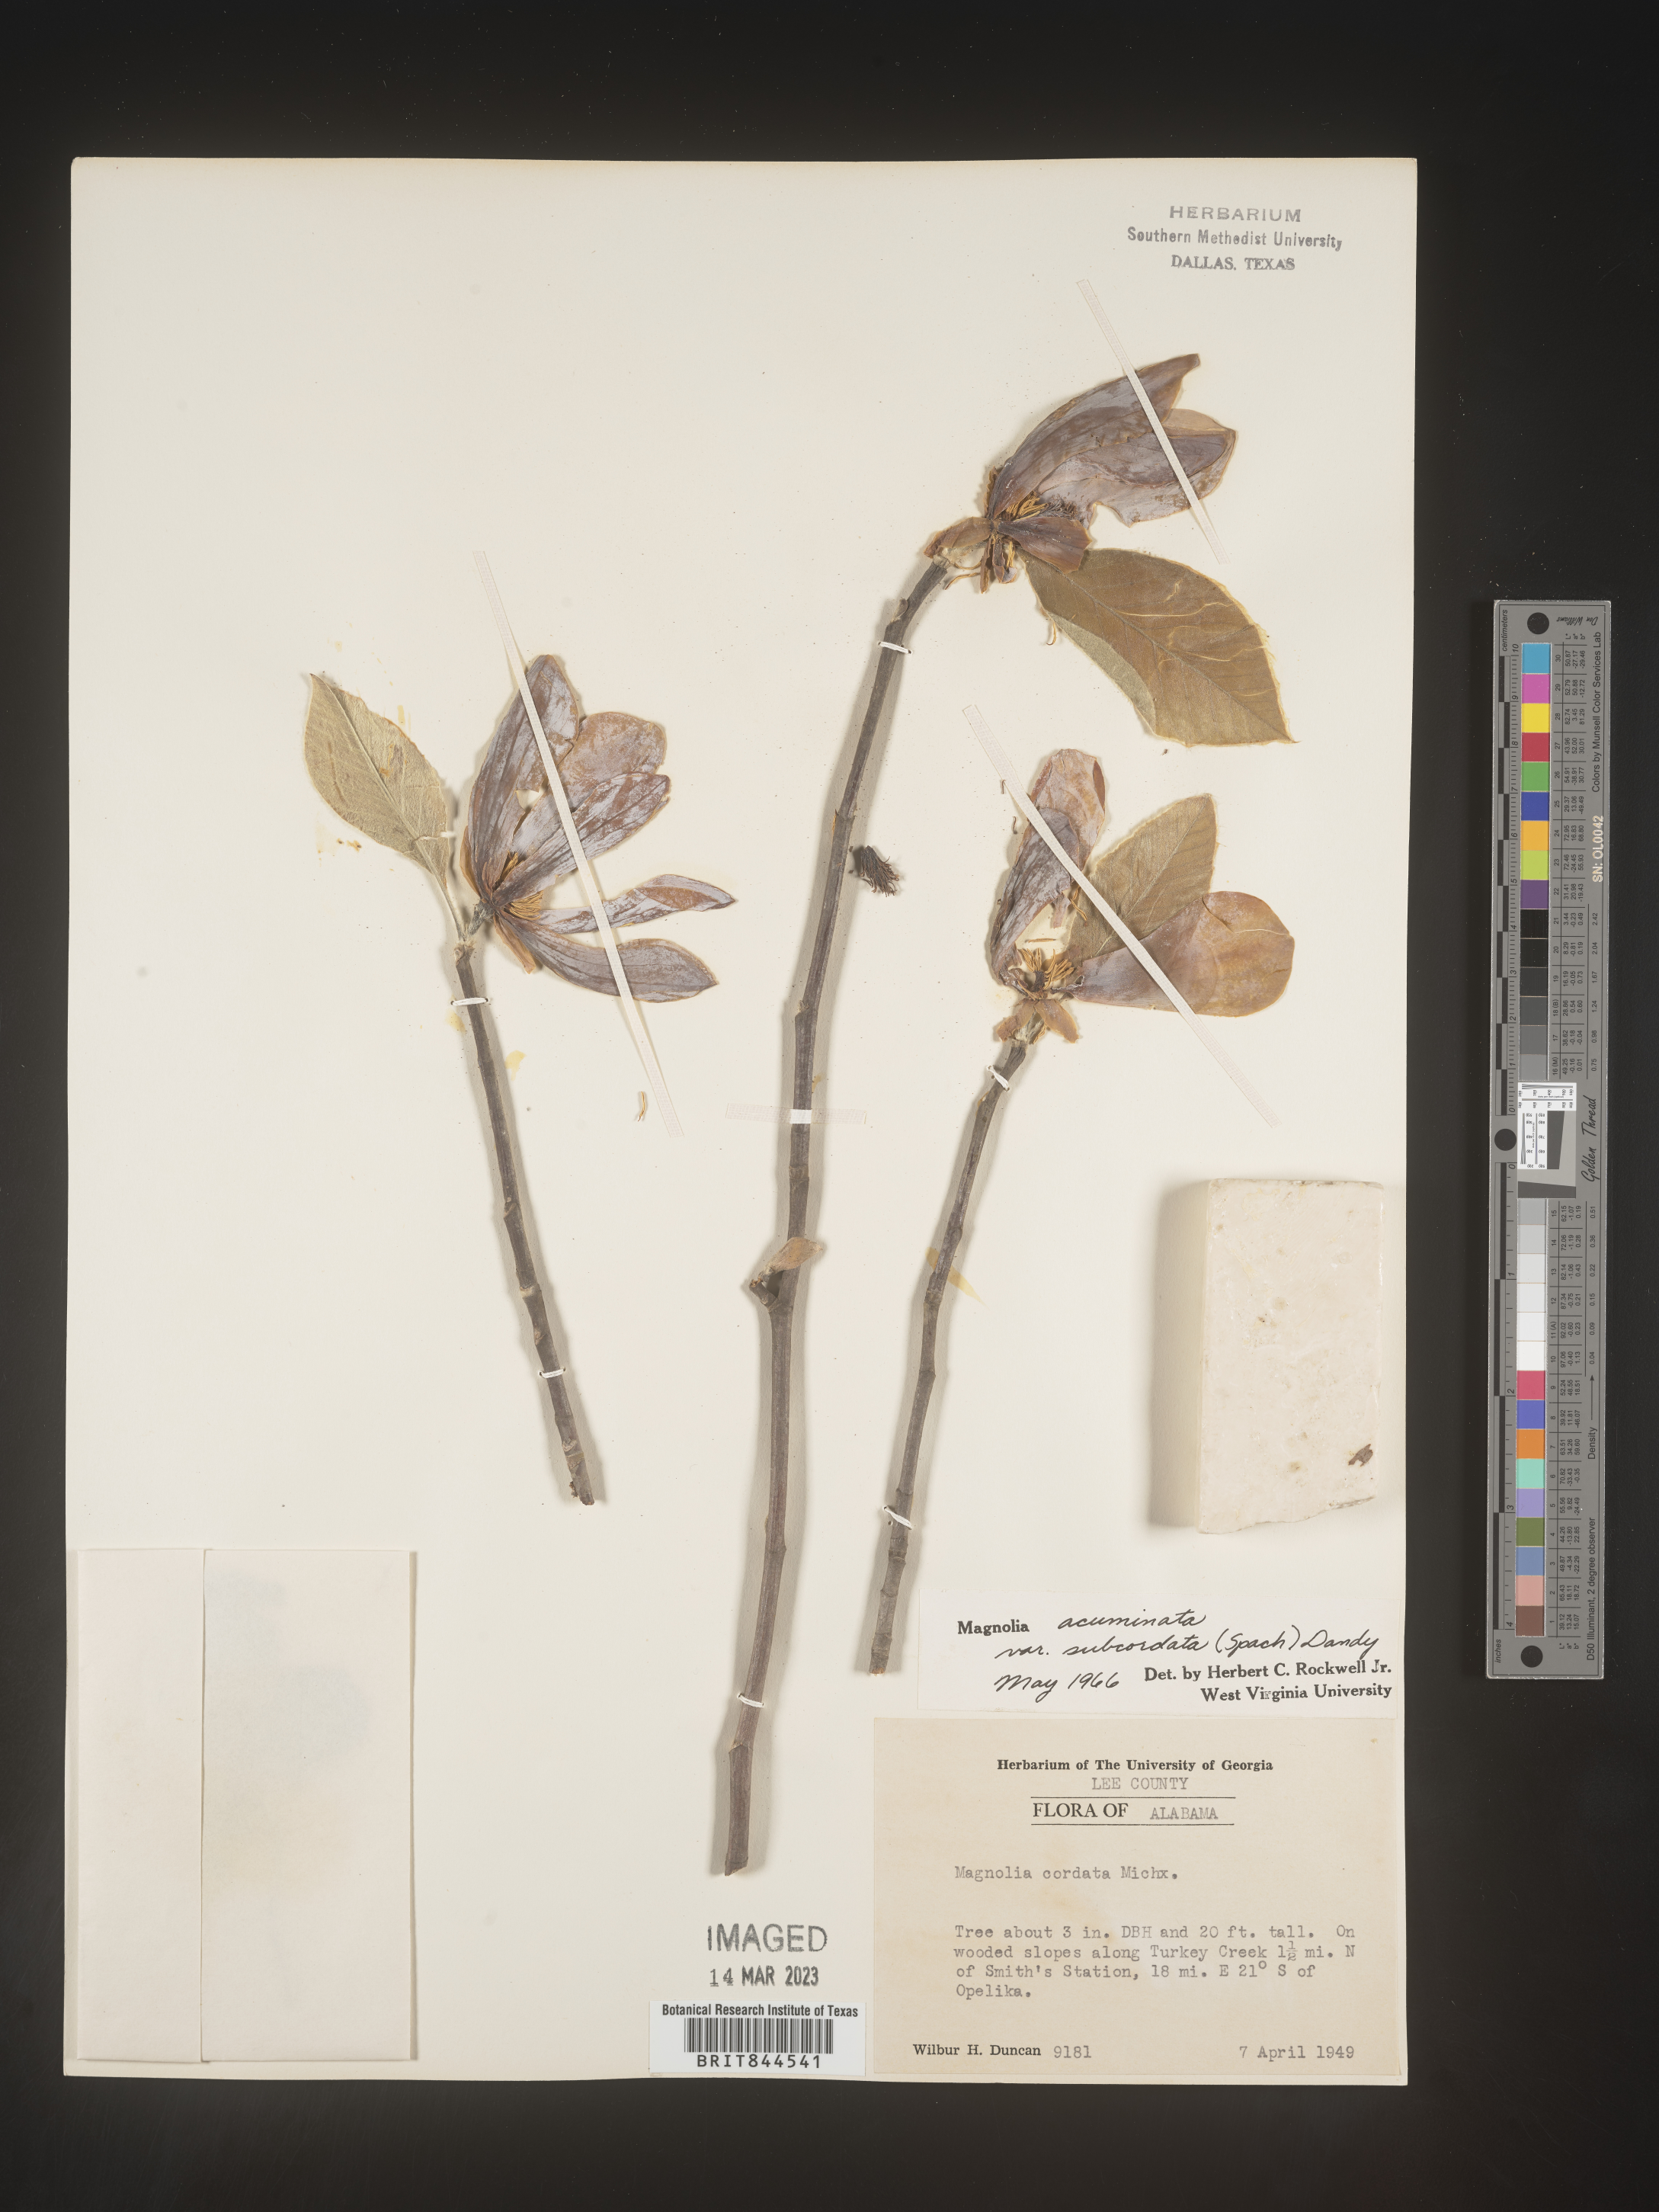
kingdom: Plantae
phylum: Tracheophyta
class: Magnoliopsida
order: Magnoliales
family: Magnoliaceae
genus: Magnolia
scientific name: Magnolia acuminata
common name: Cucumber magnolia
